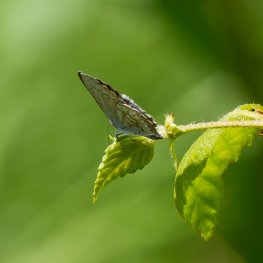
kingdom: Animalia
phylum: Arthropoda
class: Insecta
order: Lepidoptera
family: Lycaenidae
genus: Celastrina
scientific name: Celastrina serotina
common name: Cherry Gall Azure
